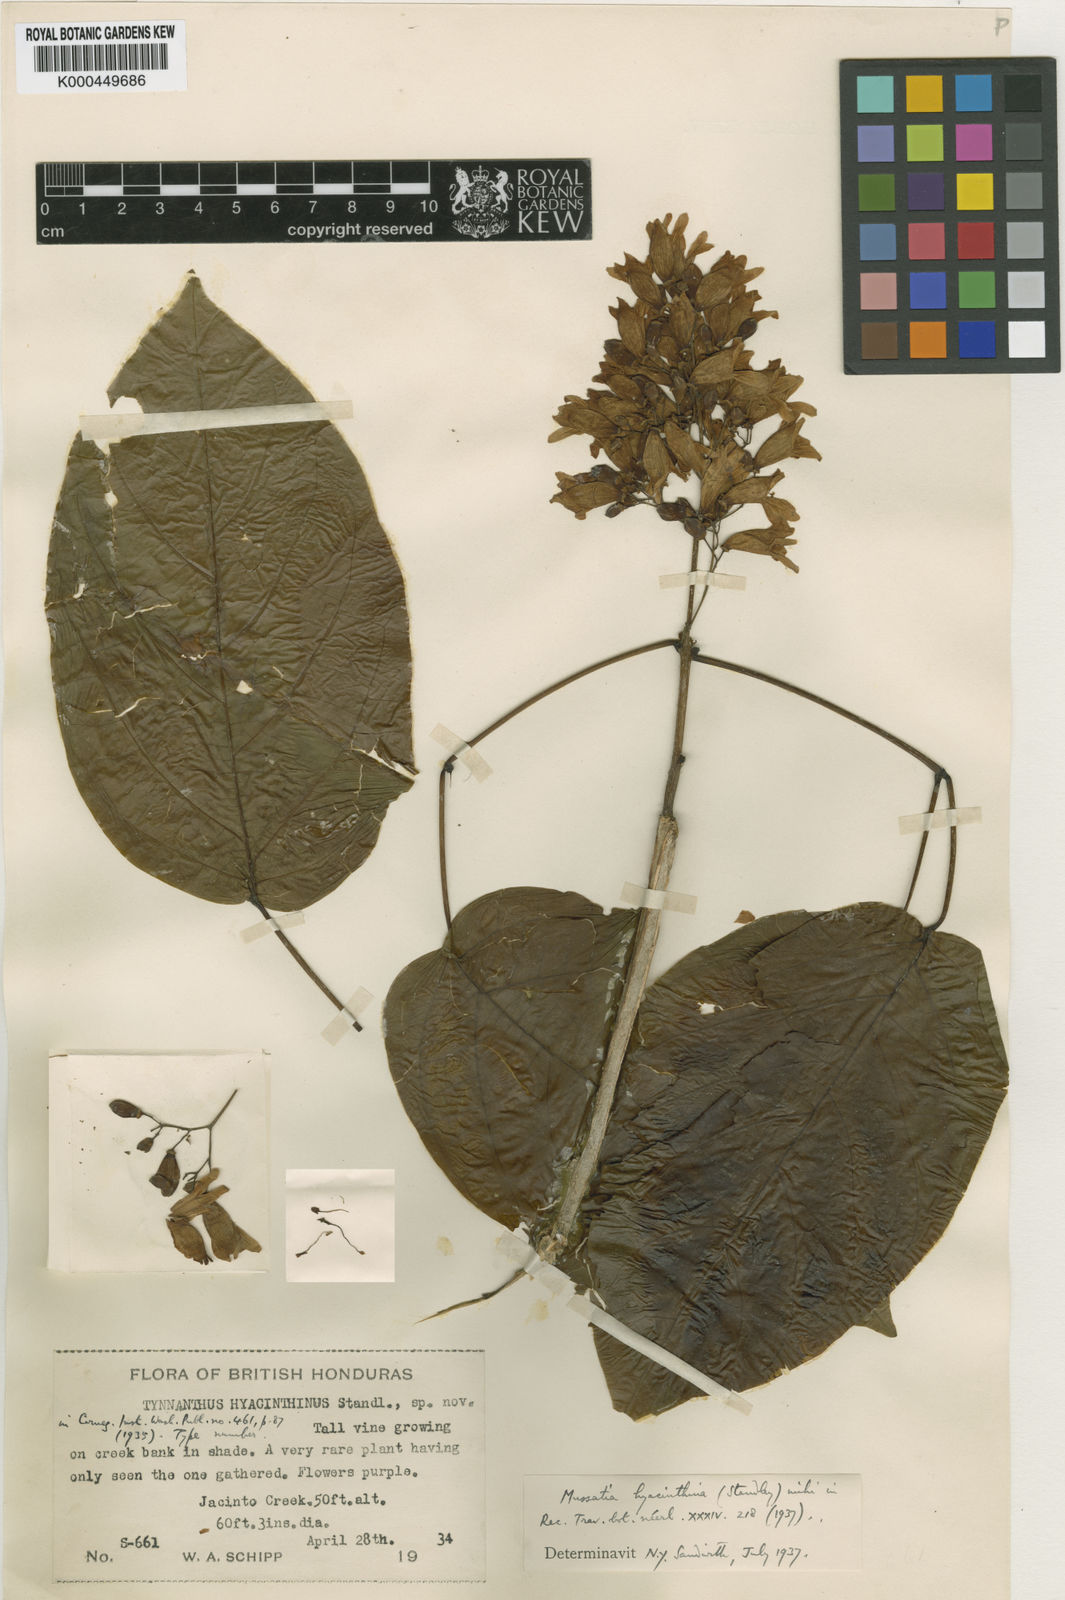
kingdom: Plantae
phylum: Tracheophyta
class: Magnoliopsida
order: Lamiales
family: Bignoniaceae
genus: Bignonia
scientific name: Bignonia hyacinthina
